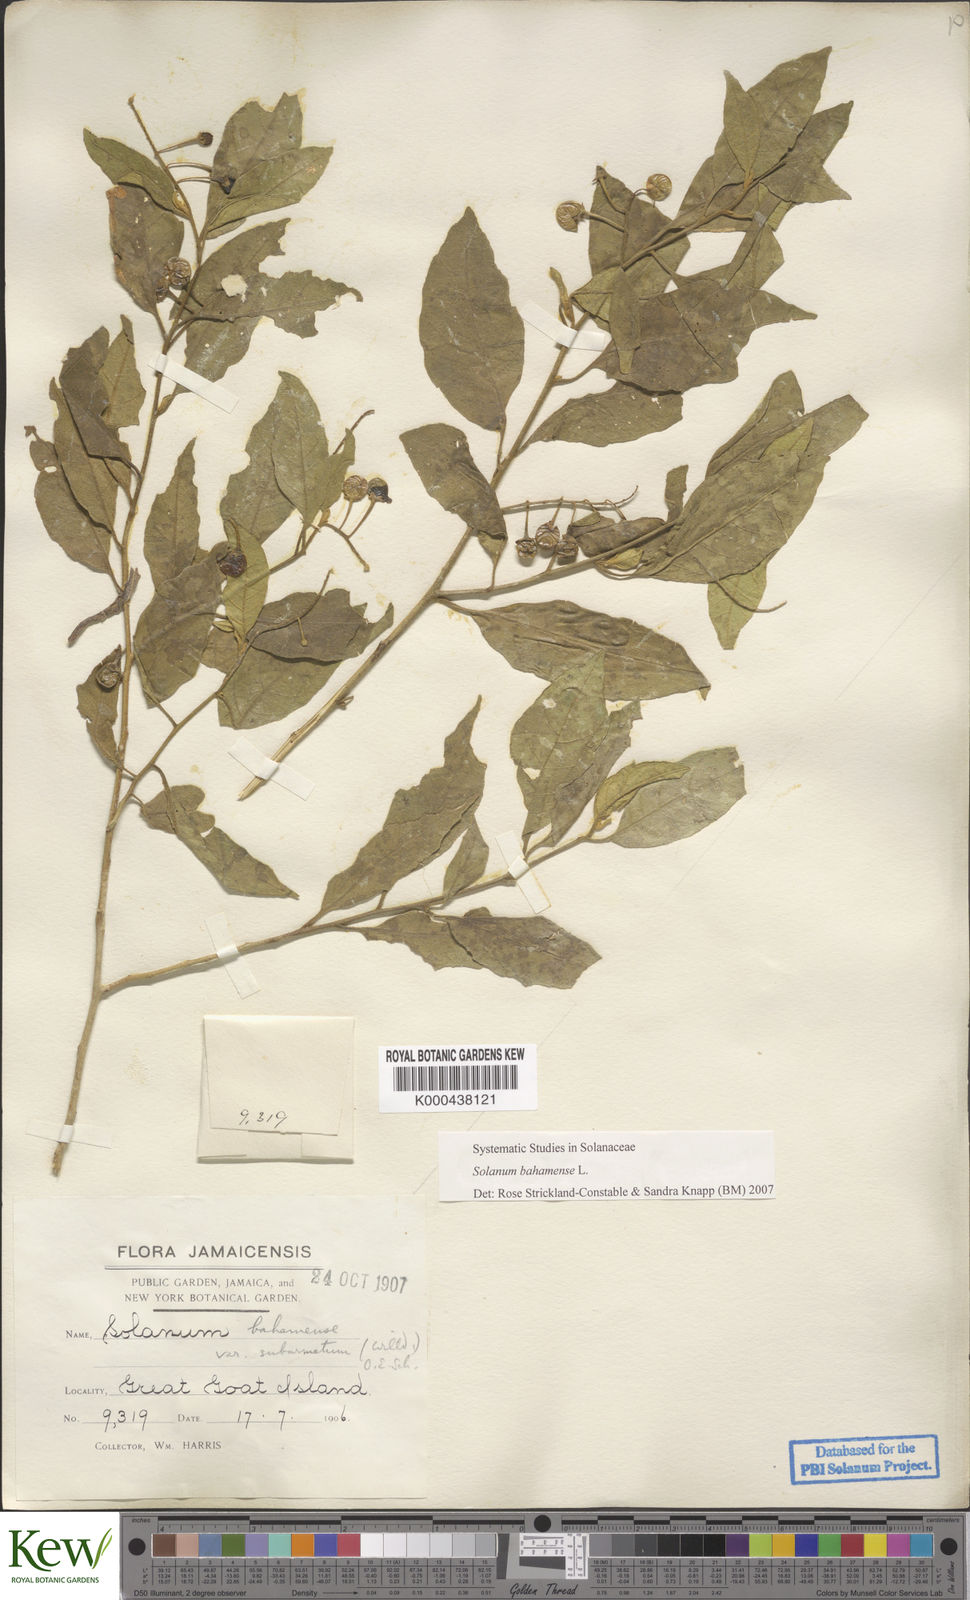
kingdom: Plantae
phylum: Tracheophyta
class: Magnoliopsida
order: Solanales
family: Solanaceae
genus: Solanum
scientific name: Solanum bahamense
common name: Canker-berry
